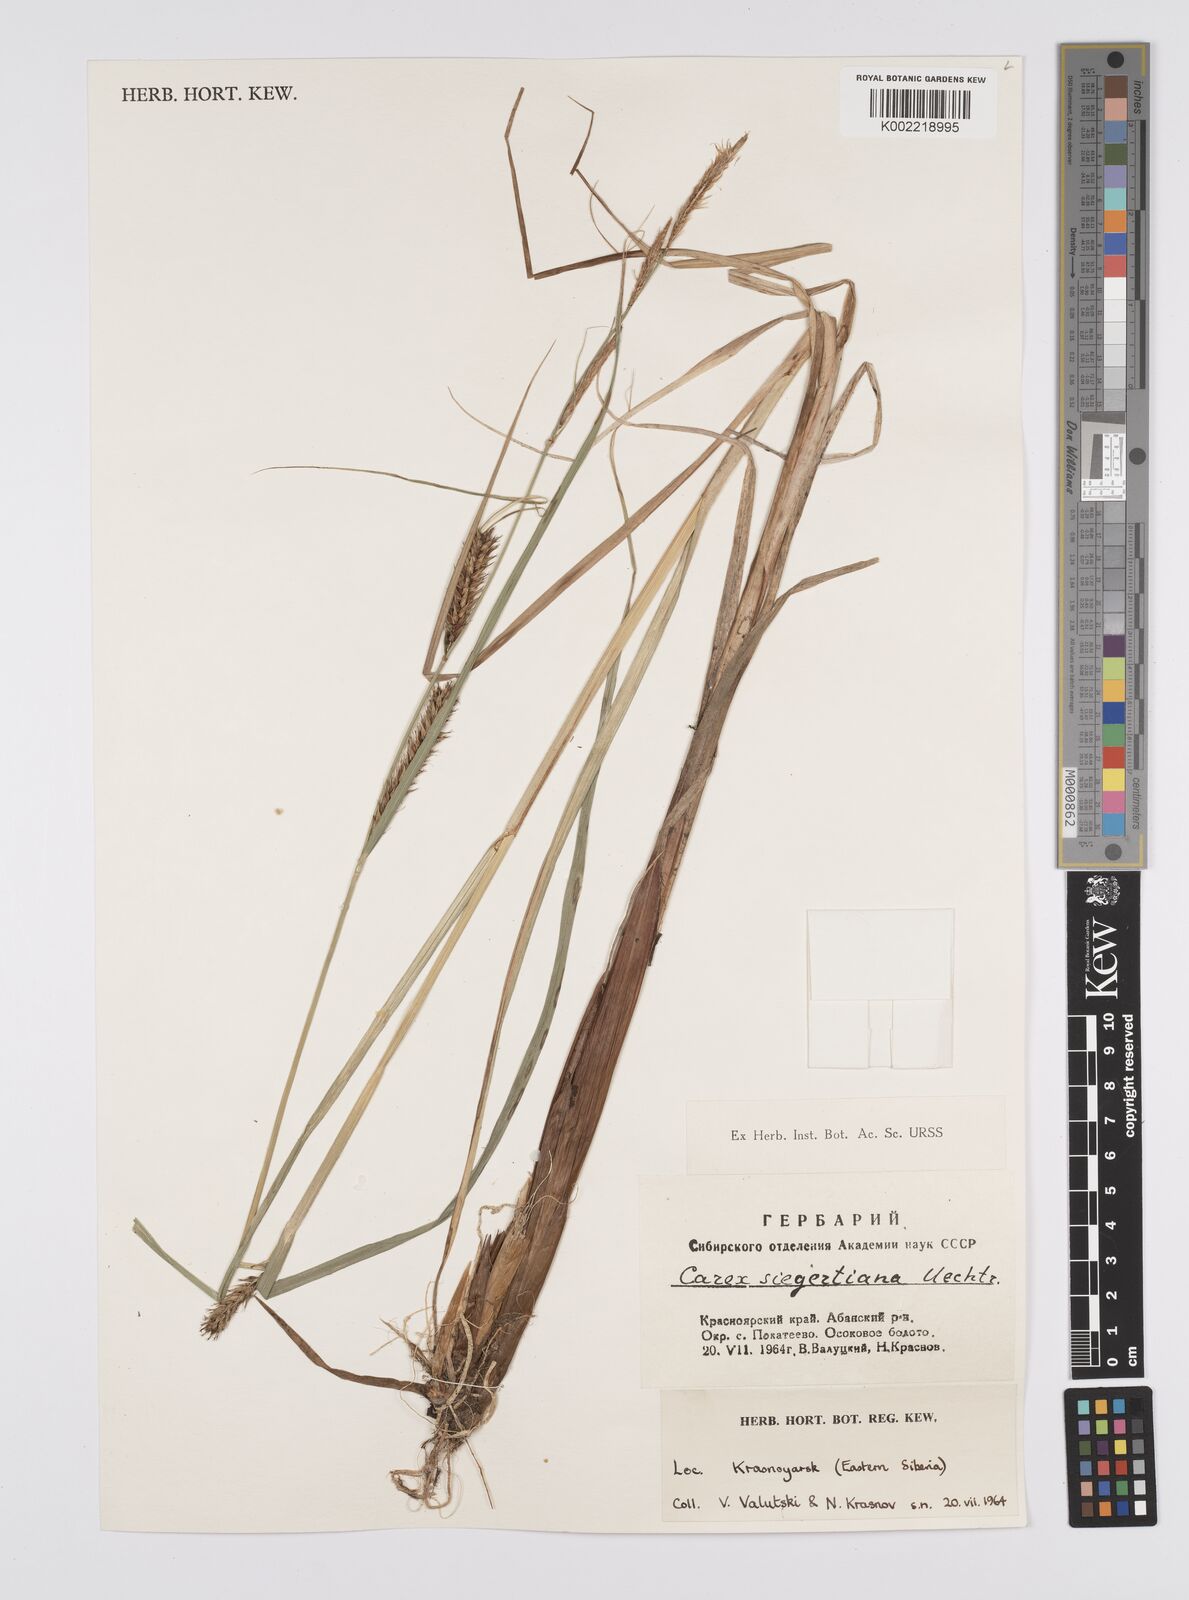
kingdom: Plantae
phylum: Tracheophyta
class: Liliopsida
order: Poales
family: Cyperaceae
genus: Carex
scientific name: Carex
